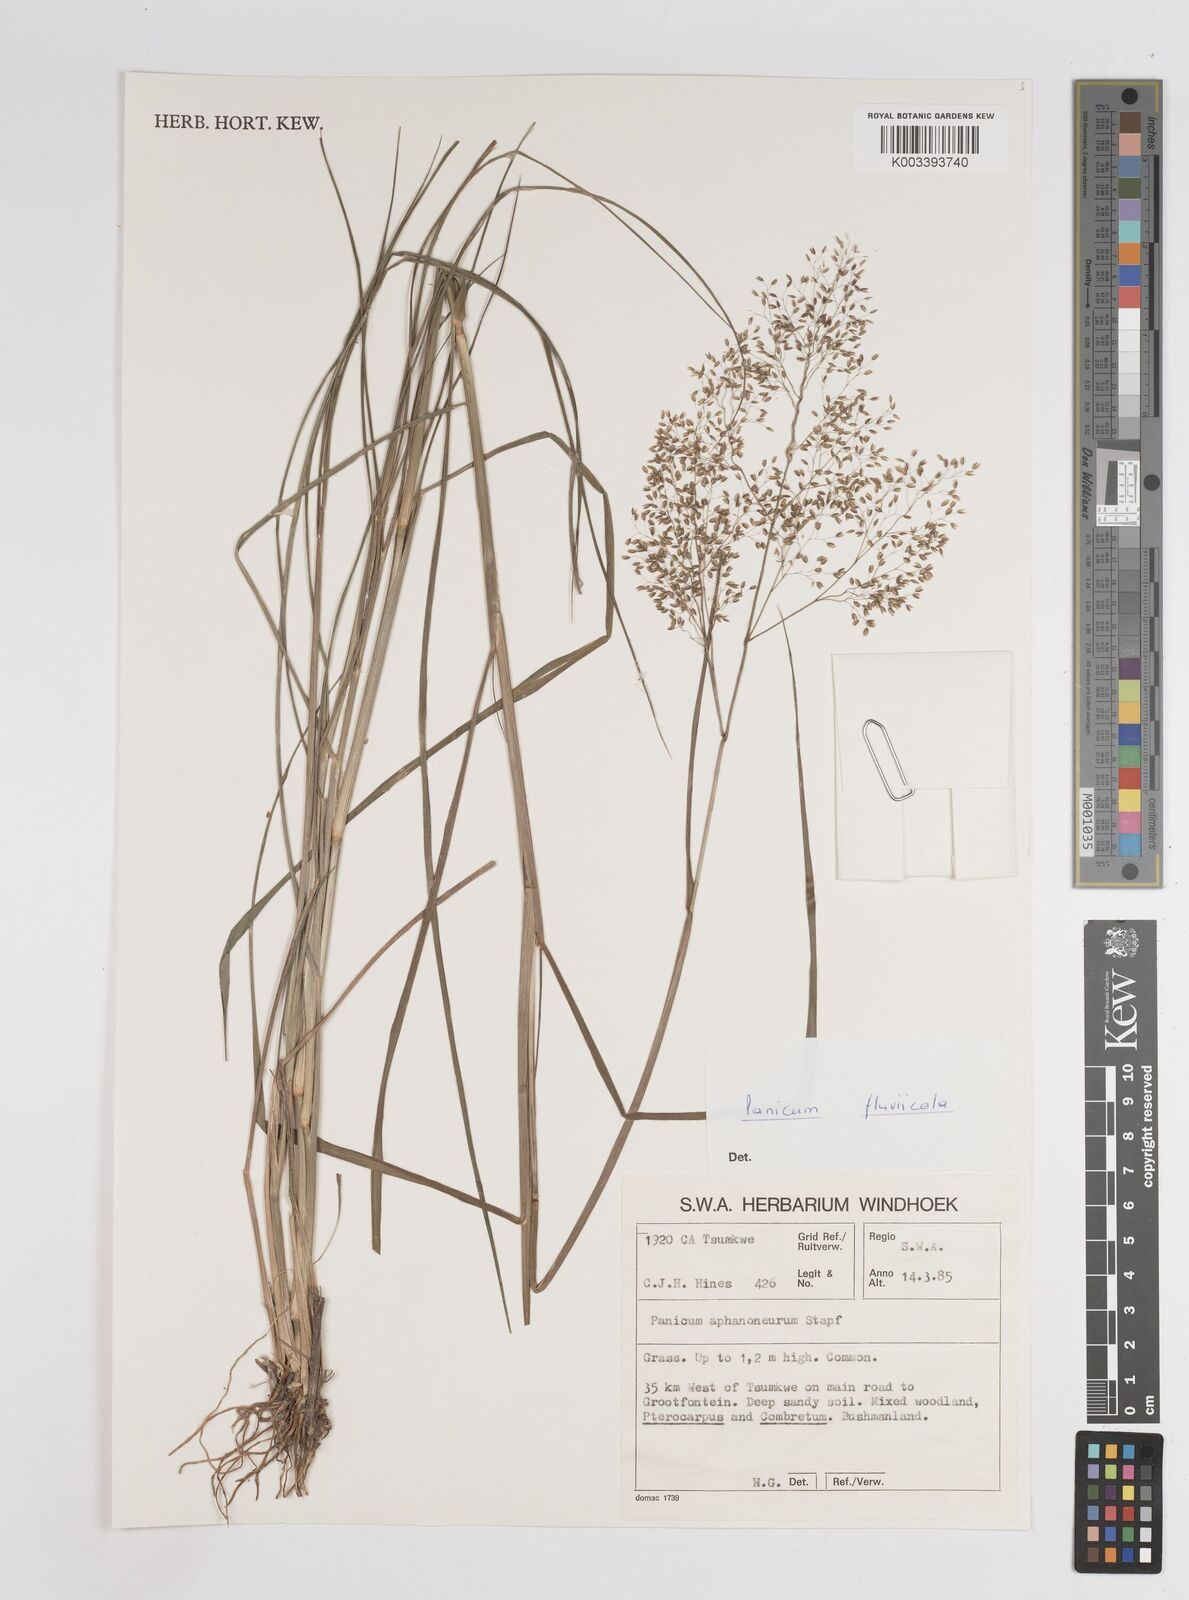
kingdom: Plantae
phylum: Tracheophyta
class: Liliopsida
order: Poales
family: Poaceae
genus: Panicum
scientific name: Panicum fluviicola
